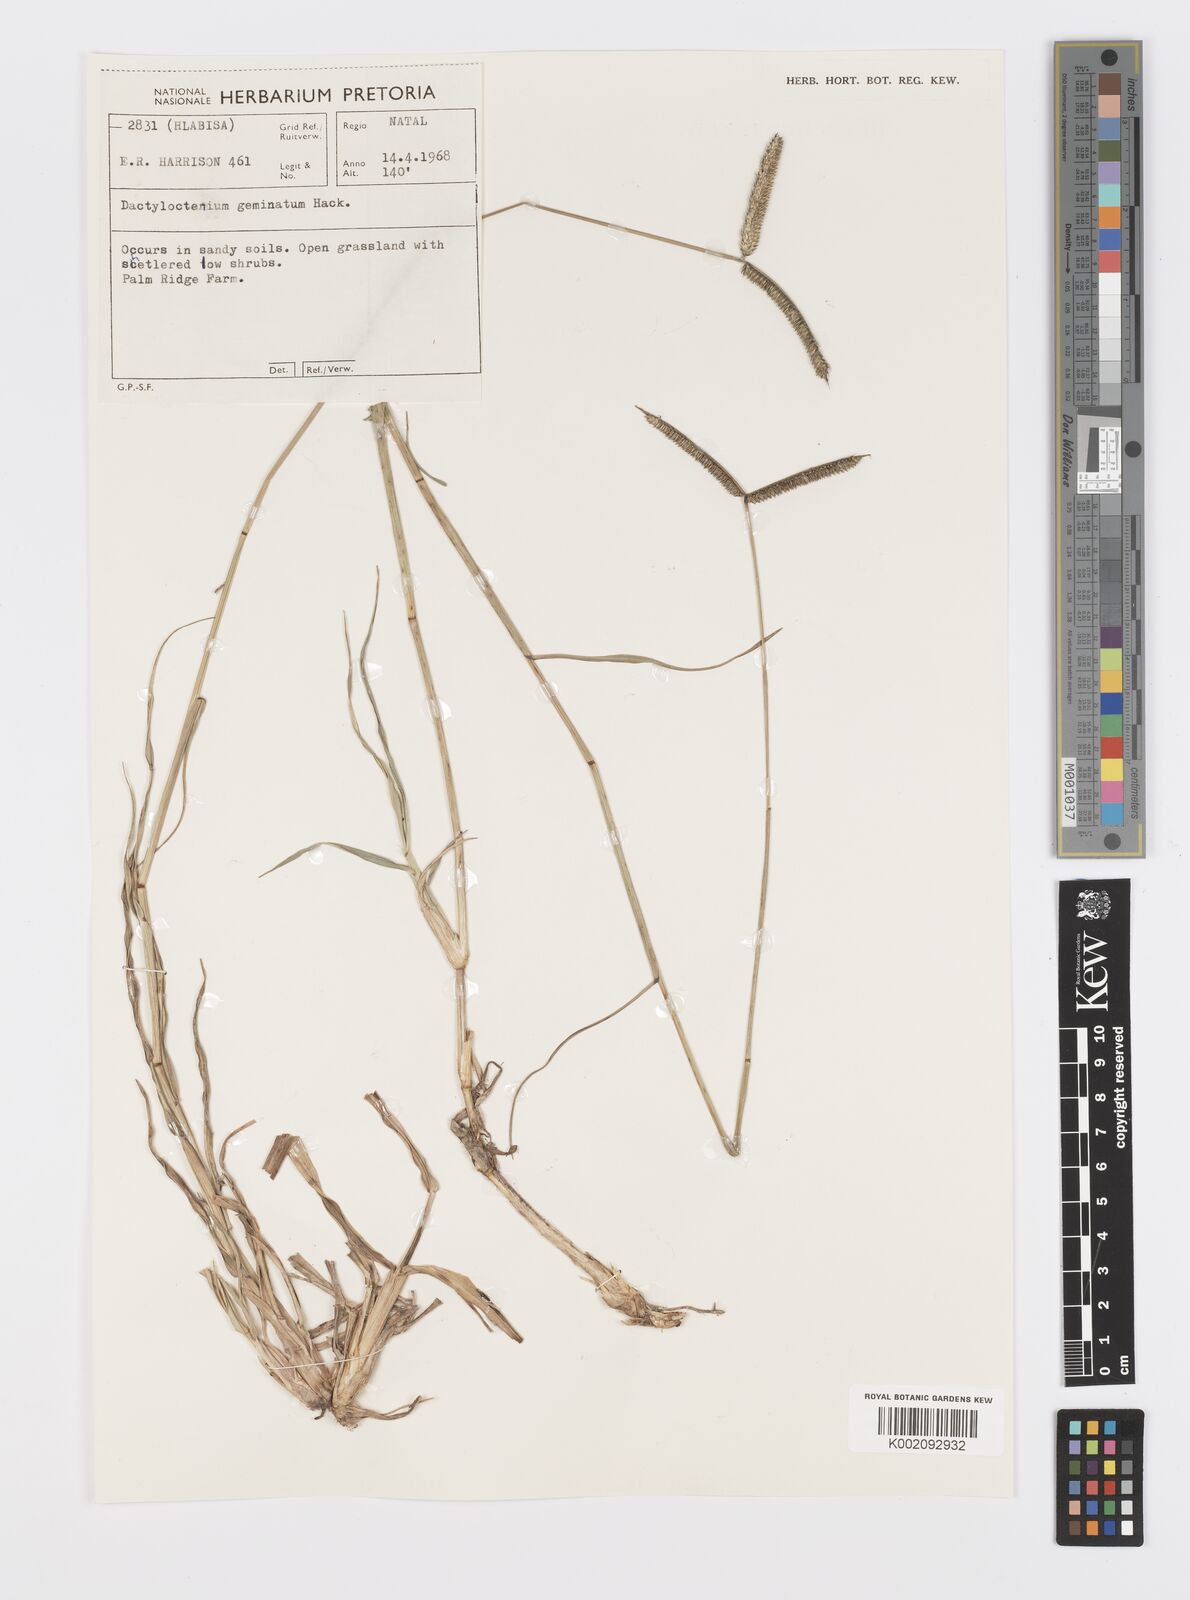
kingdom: Plantae
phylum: Tracheophyta
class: Liliopsida
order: Poales
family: Poaceae
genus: Dactyloctenium
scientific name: Dactyloctenium geminatum
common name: Crowsfoot grass
